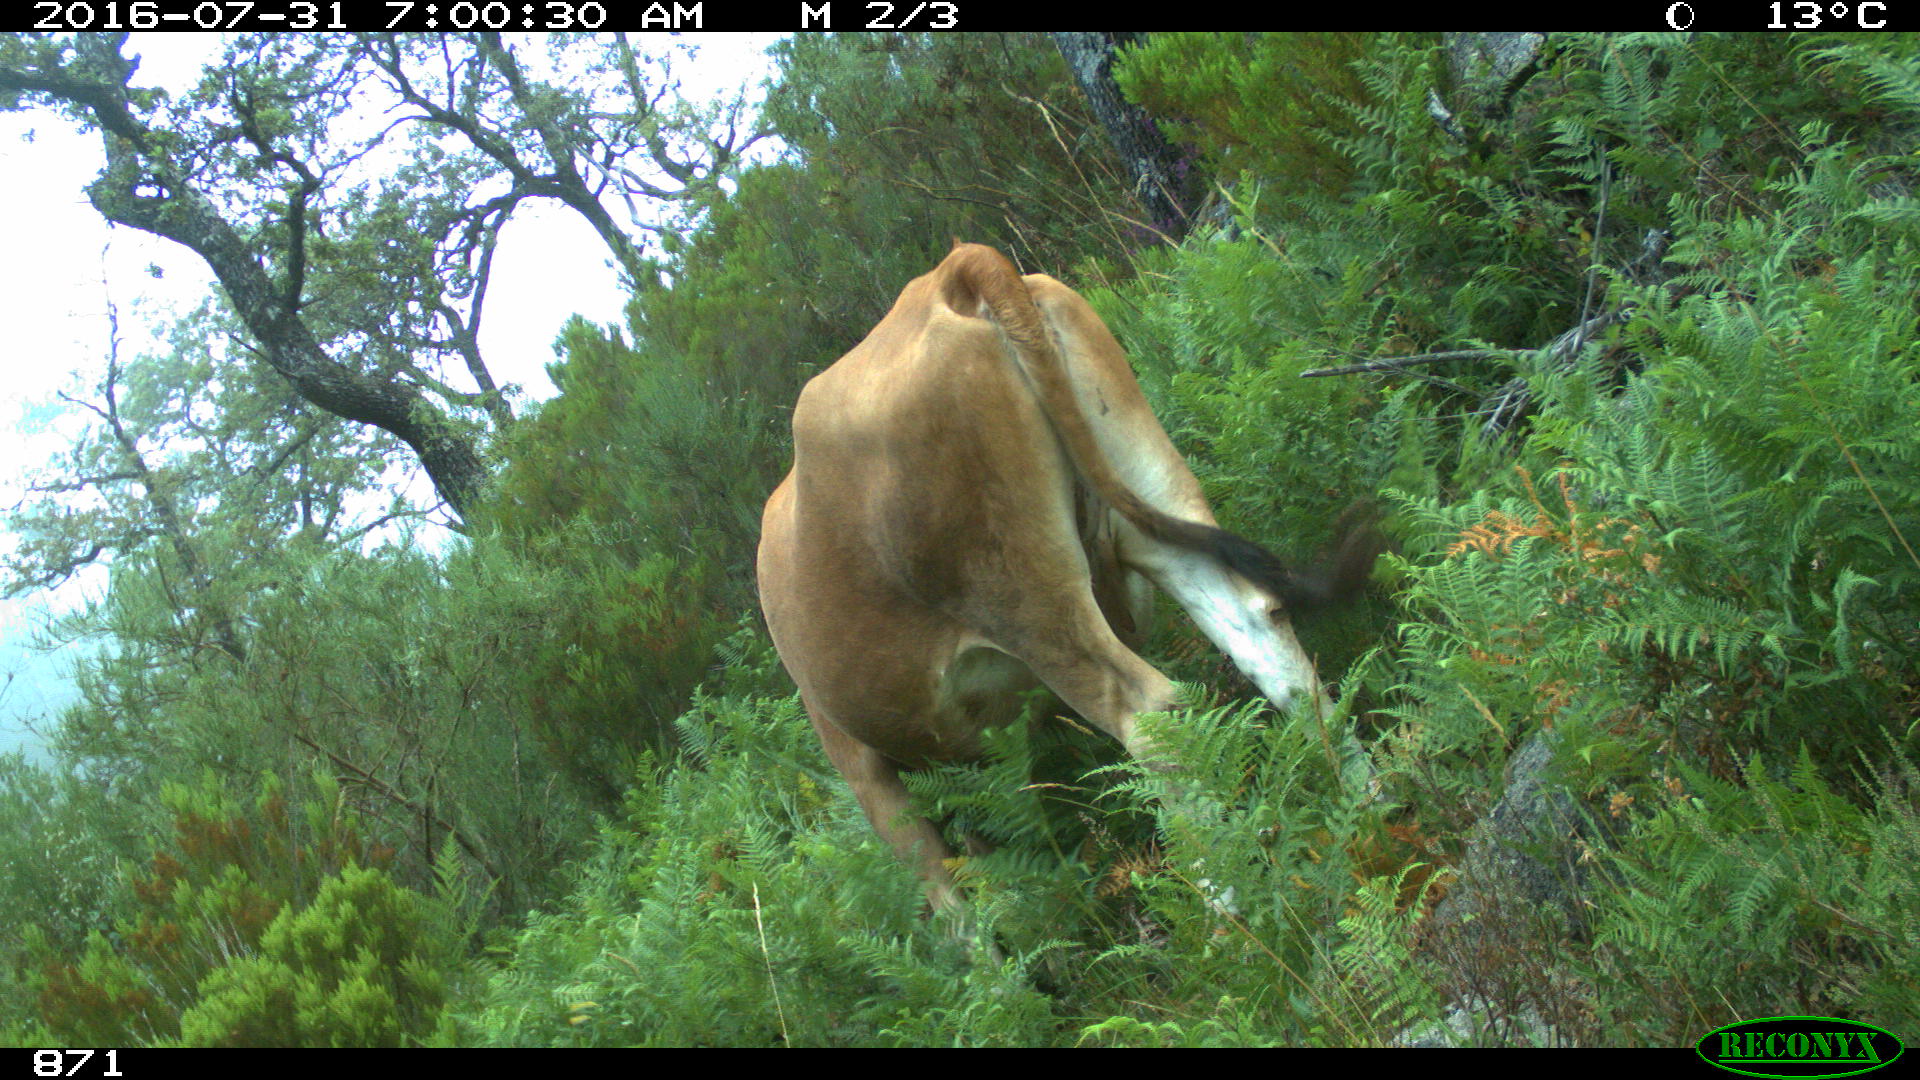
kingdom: Animalia
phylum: Chordata
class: Mammalia
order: Artiodactyla
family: Bovidae
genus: Bos
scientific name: Bos taurus
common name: Domesticated cattle
